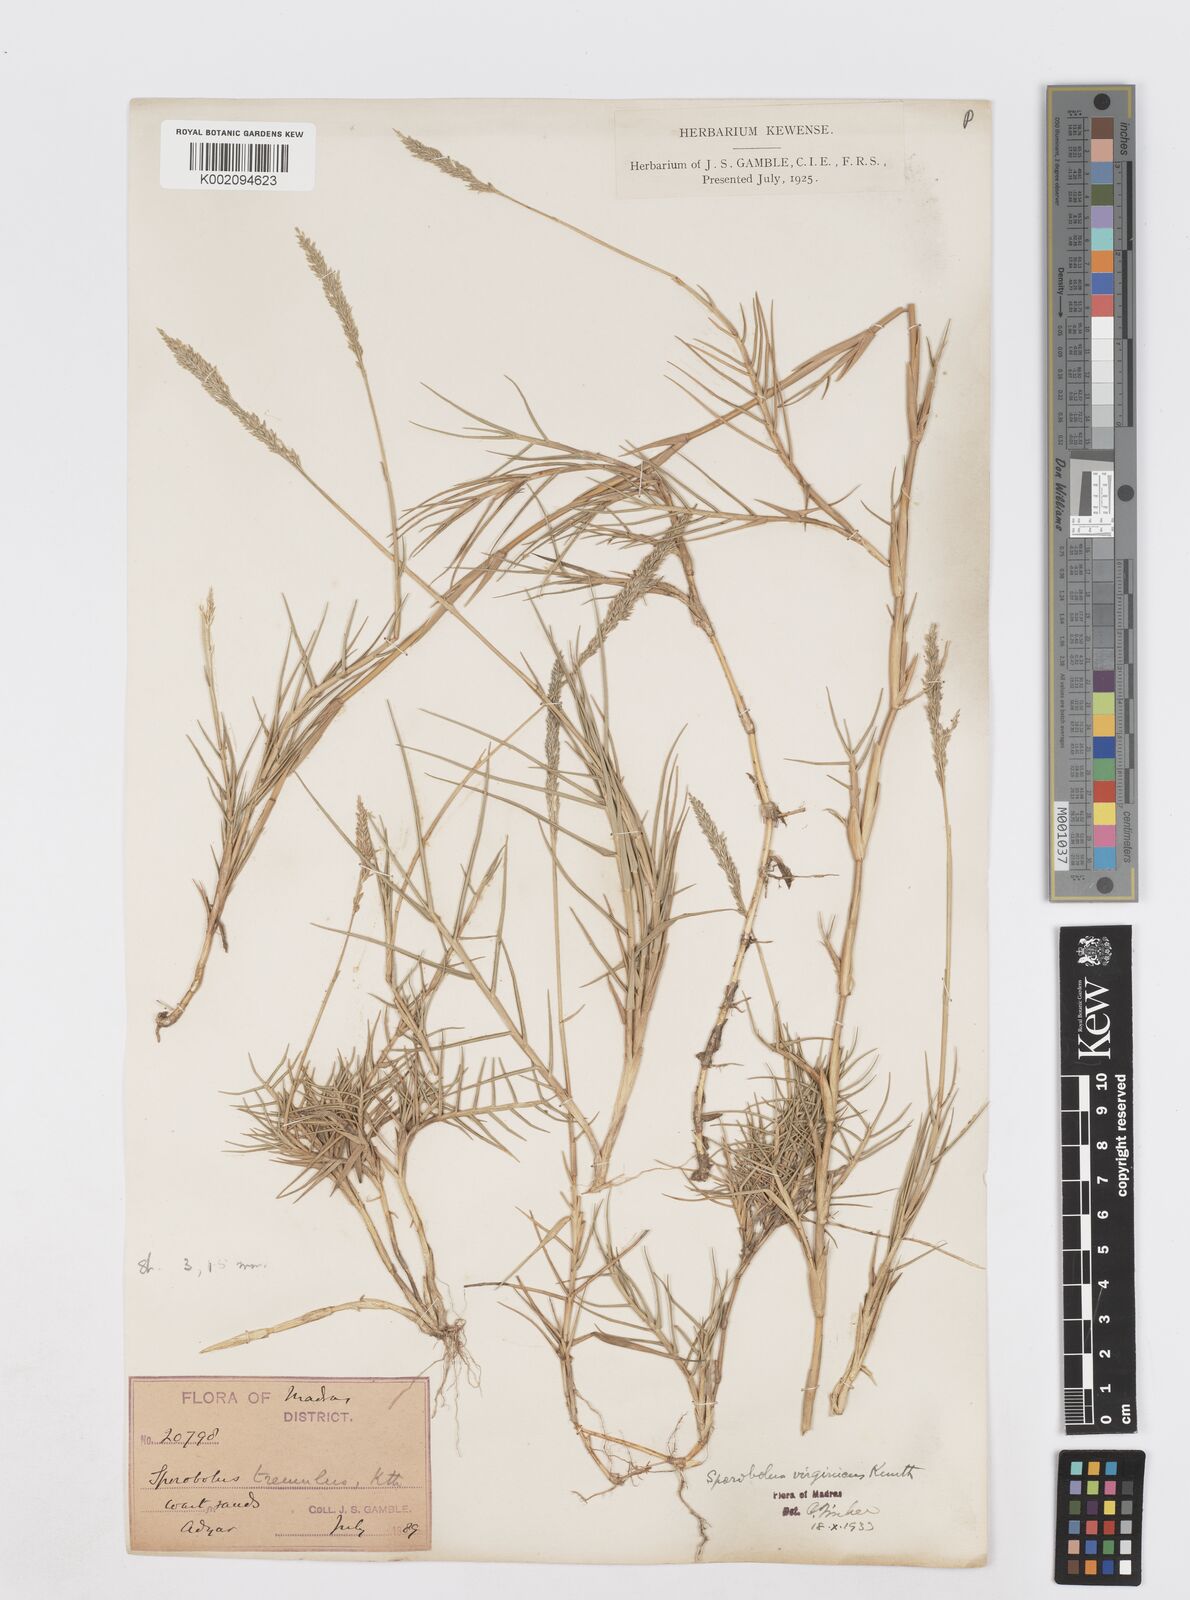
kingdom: Plantae
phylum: Tracheophyta
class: Liliopsida
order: Poales
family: Poaceae
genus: Sporobolus
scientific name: Sporobolus virginicus
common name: Beach dropseed
